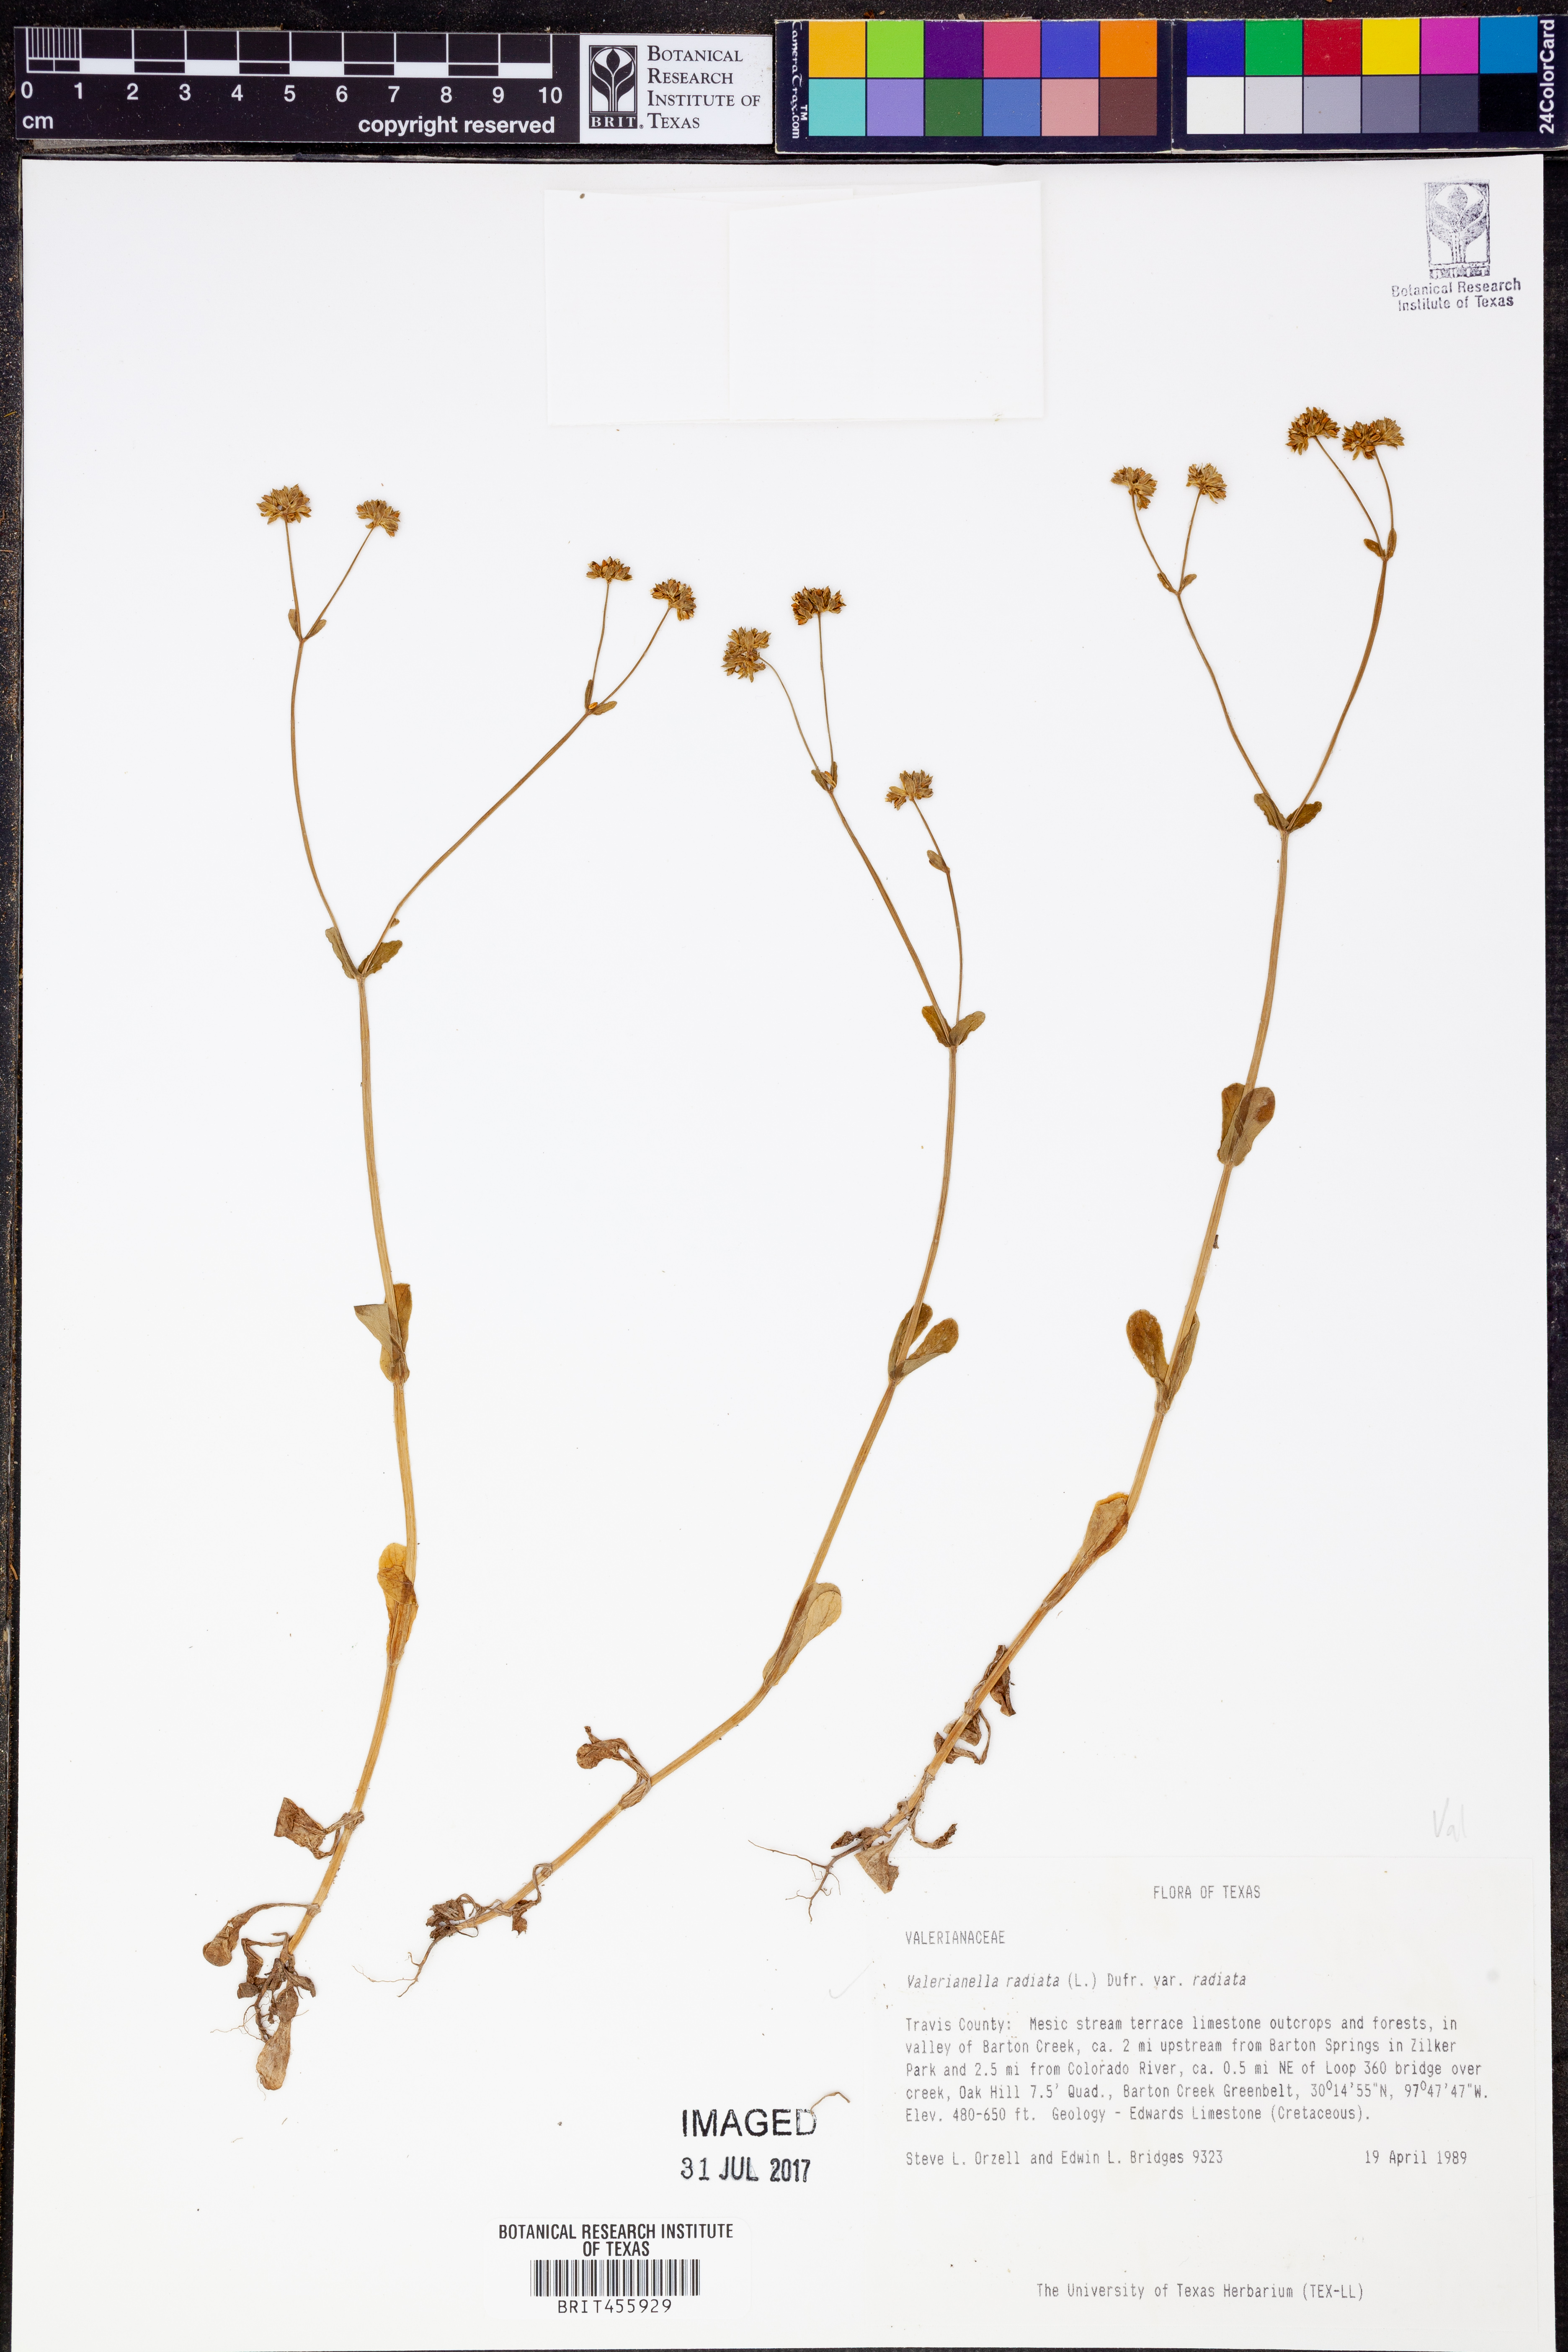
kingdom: Plantae
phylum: Tracheophyta
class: Magnoliopsida
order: Dipsacales
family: Caprifoliaceae
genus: Valerianella
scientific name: Valerianella radiata
